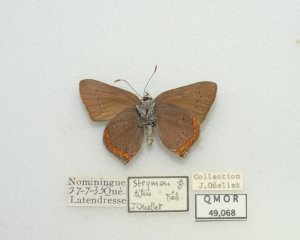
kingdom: Animalia
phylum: Arthropoda
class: Insecta
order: Lepidoptera
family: Lycaenidae
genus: Harkenclenus
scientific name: Harkenclenus titus
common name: Coral Hairstreak
